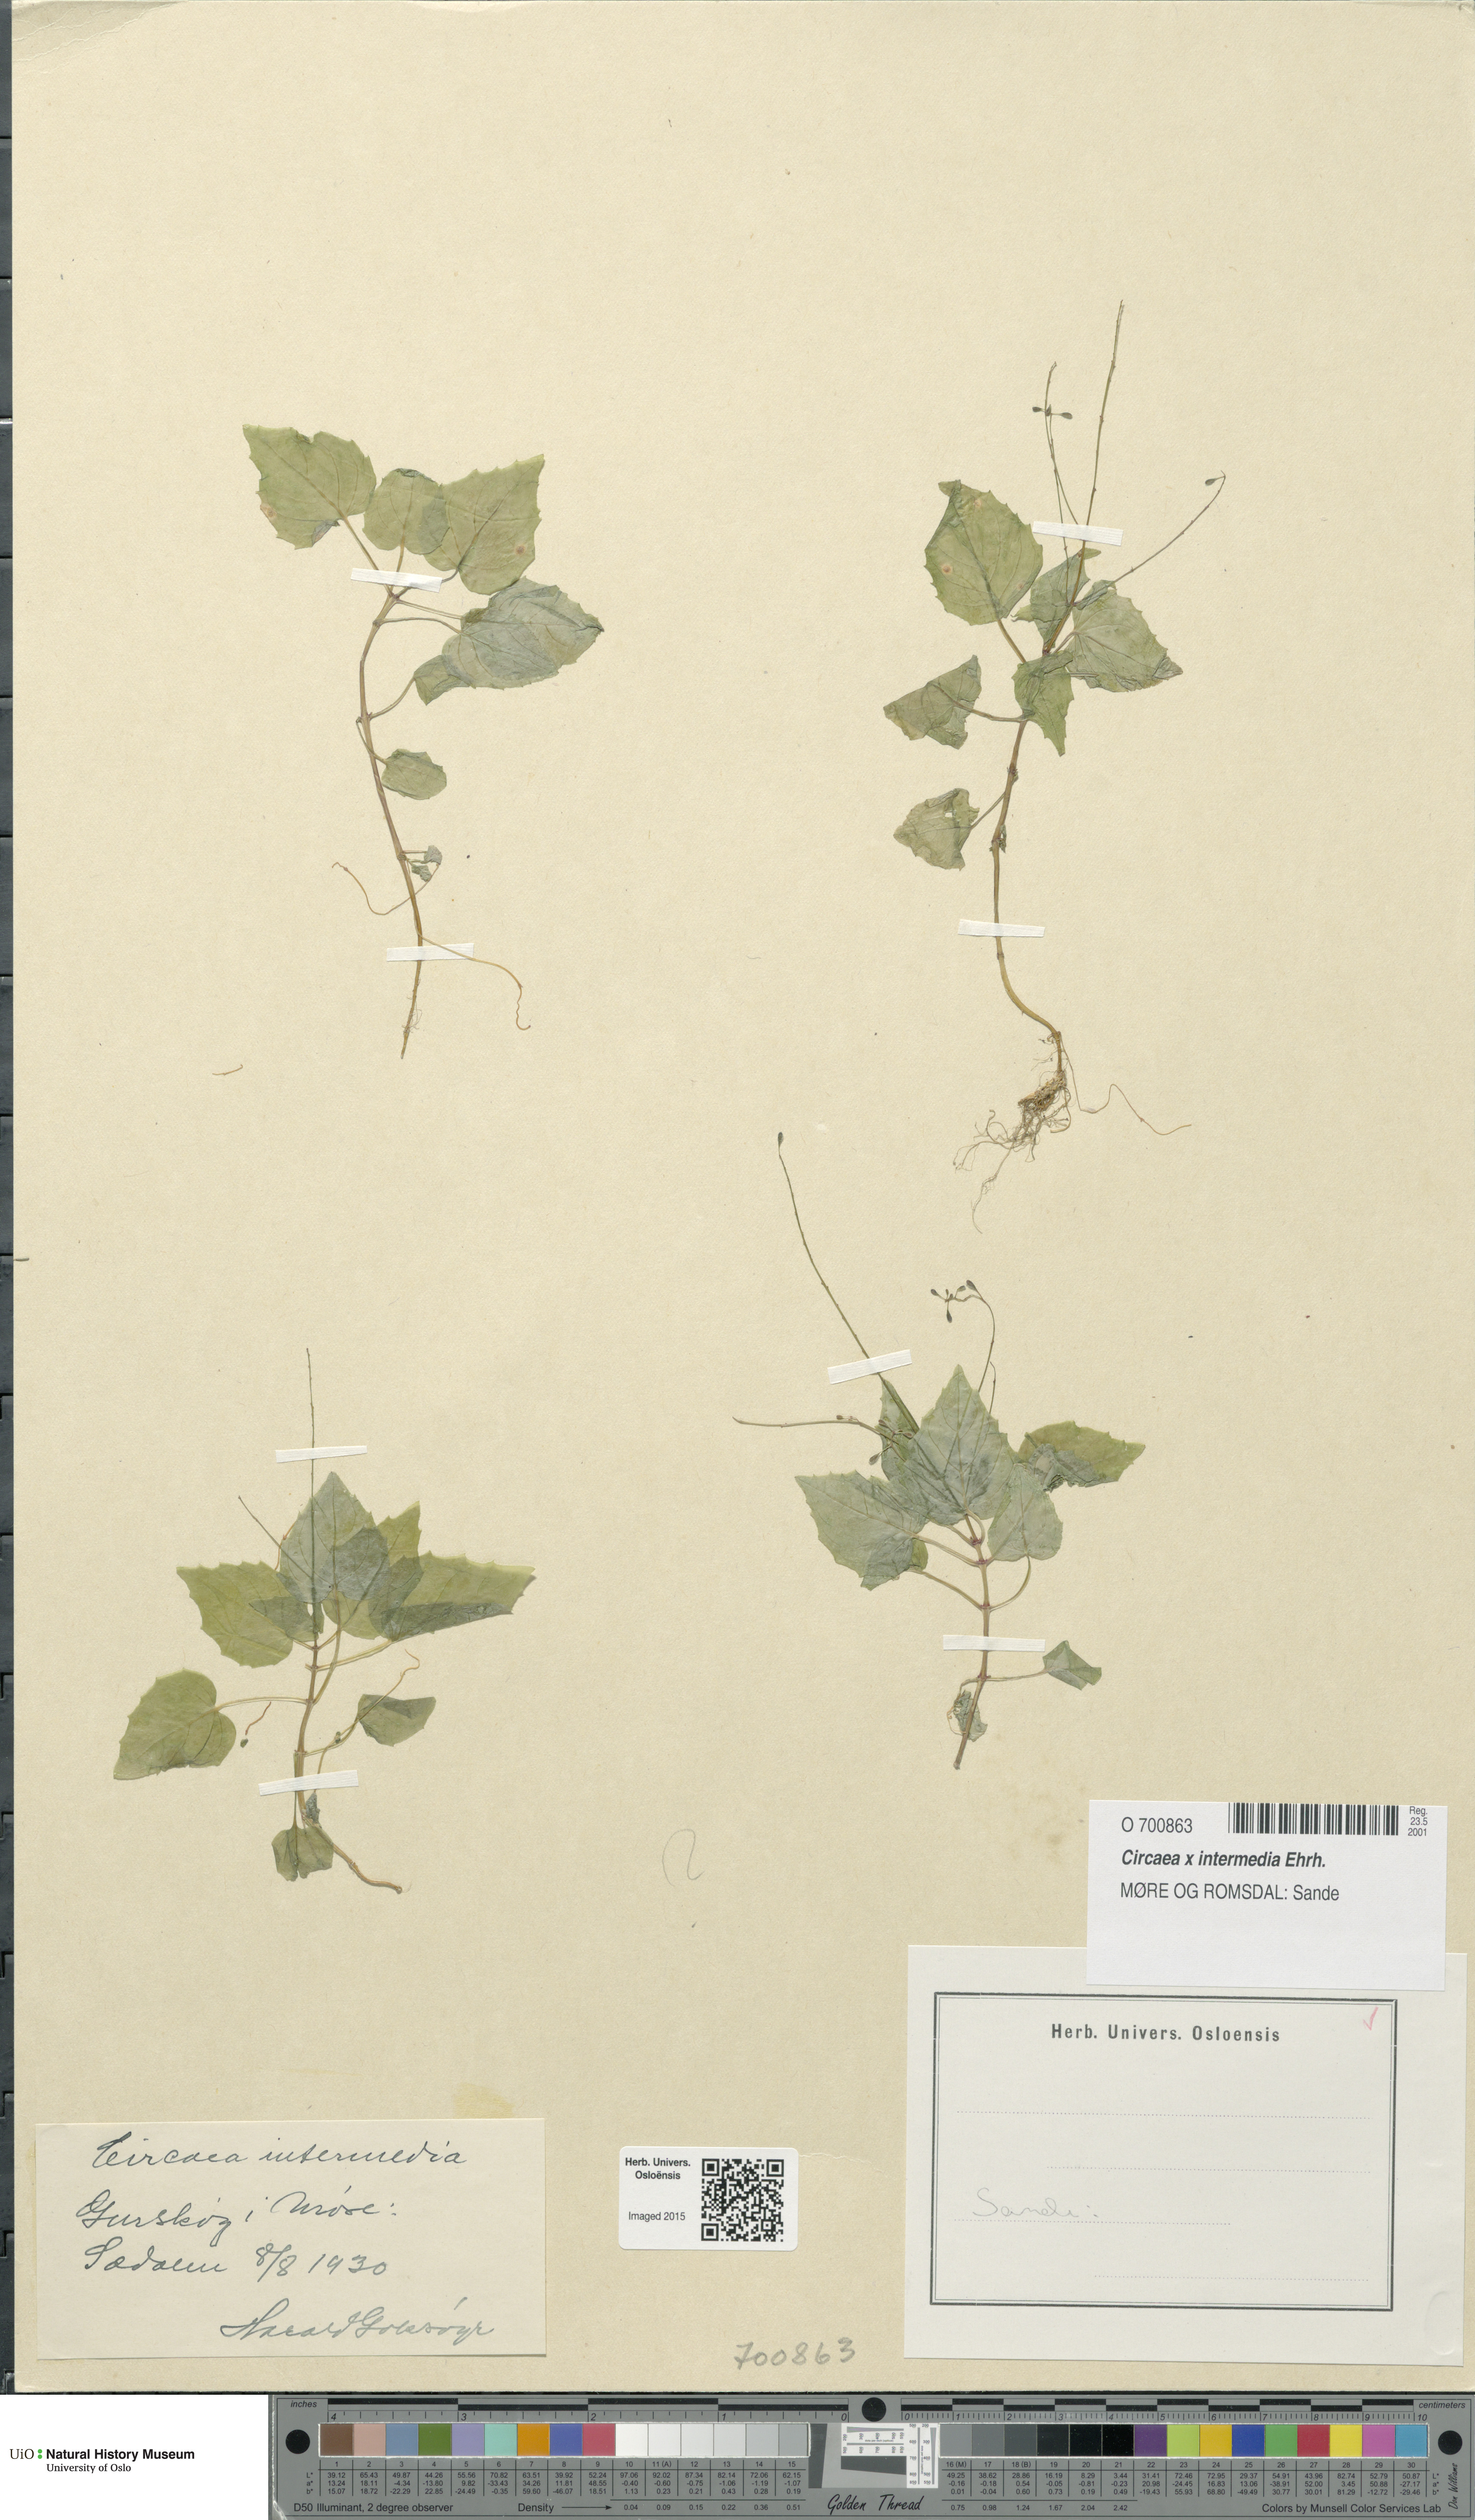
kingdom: Plantae
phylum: Tracheophyta
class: Magnoliopsida
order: Myrtales
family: Onagraceae
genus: Circaea
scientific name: Circaea intermedia
